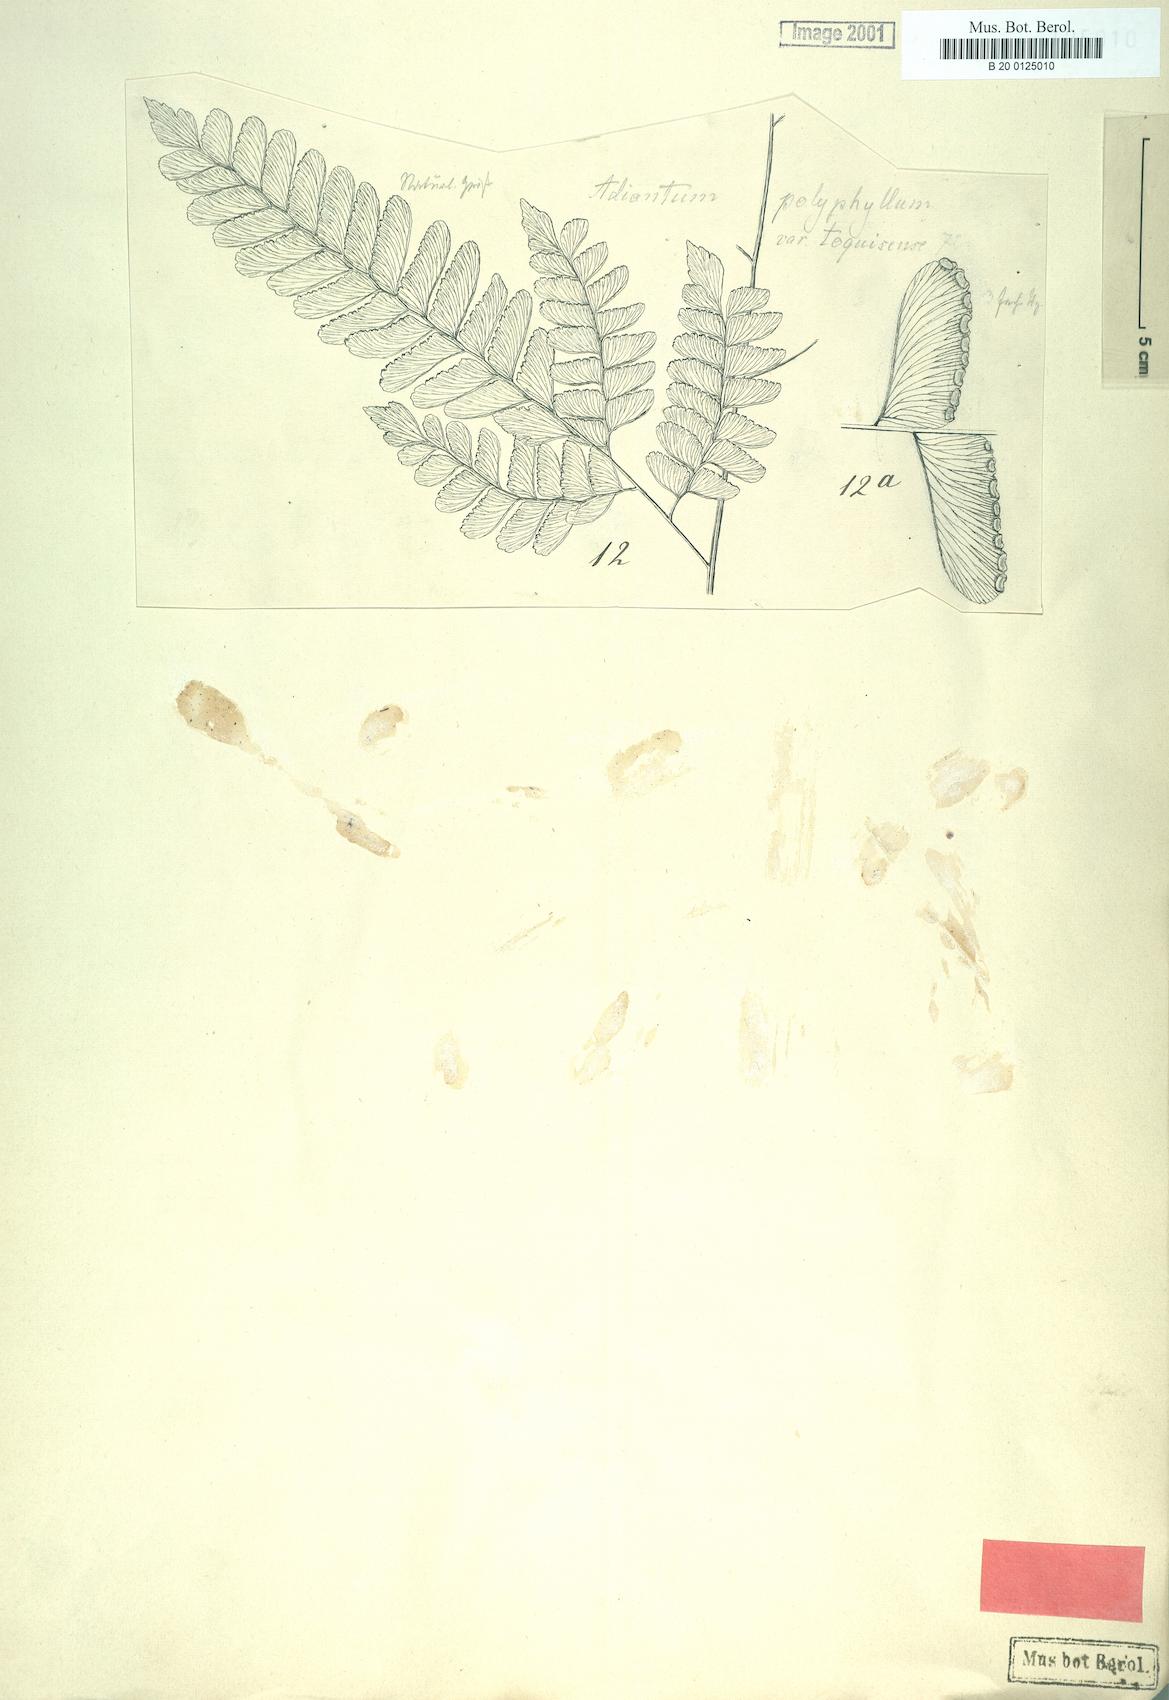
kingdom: Plantae
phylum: Tracheophyta
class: Polypodiopsida
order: Polypodiales
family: Pteridaceae
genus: Adiantum
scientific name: Adiantum polyphyllum
